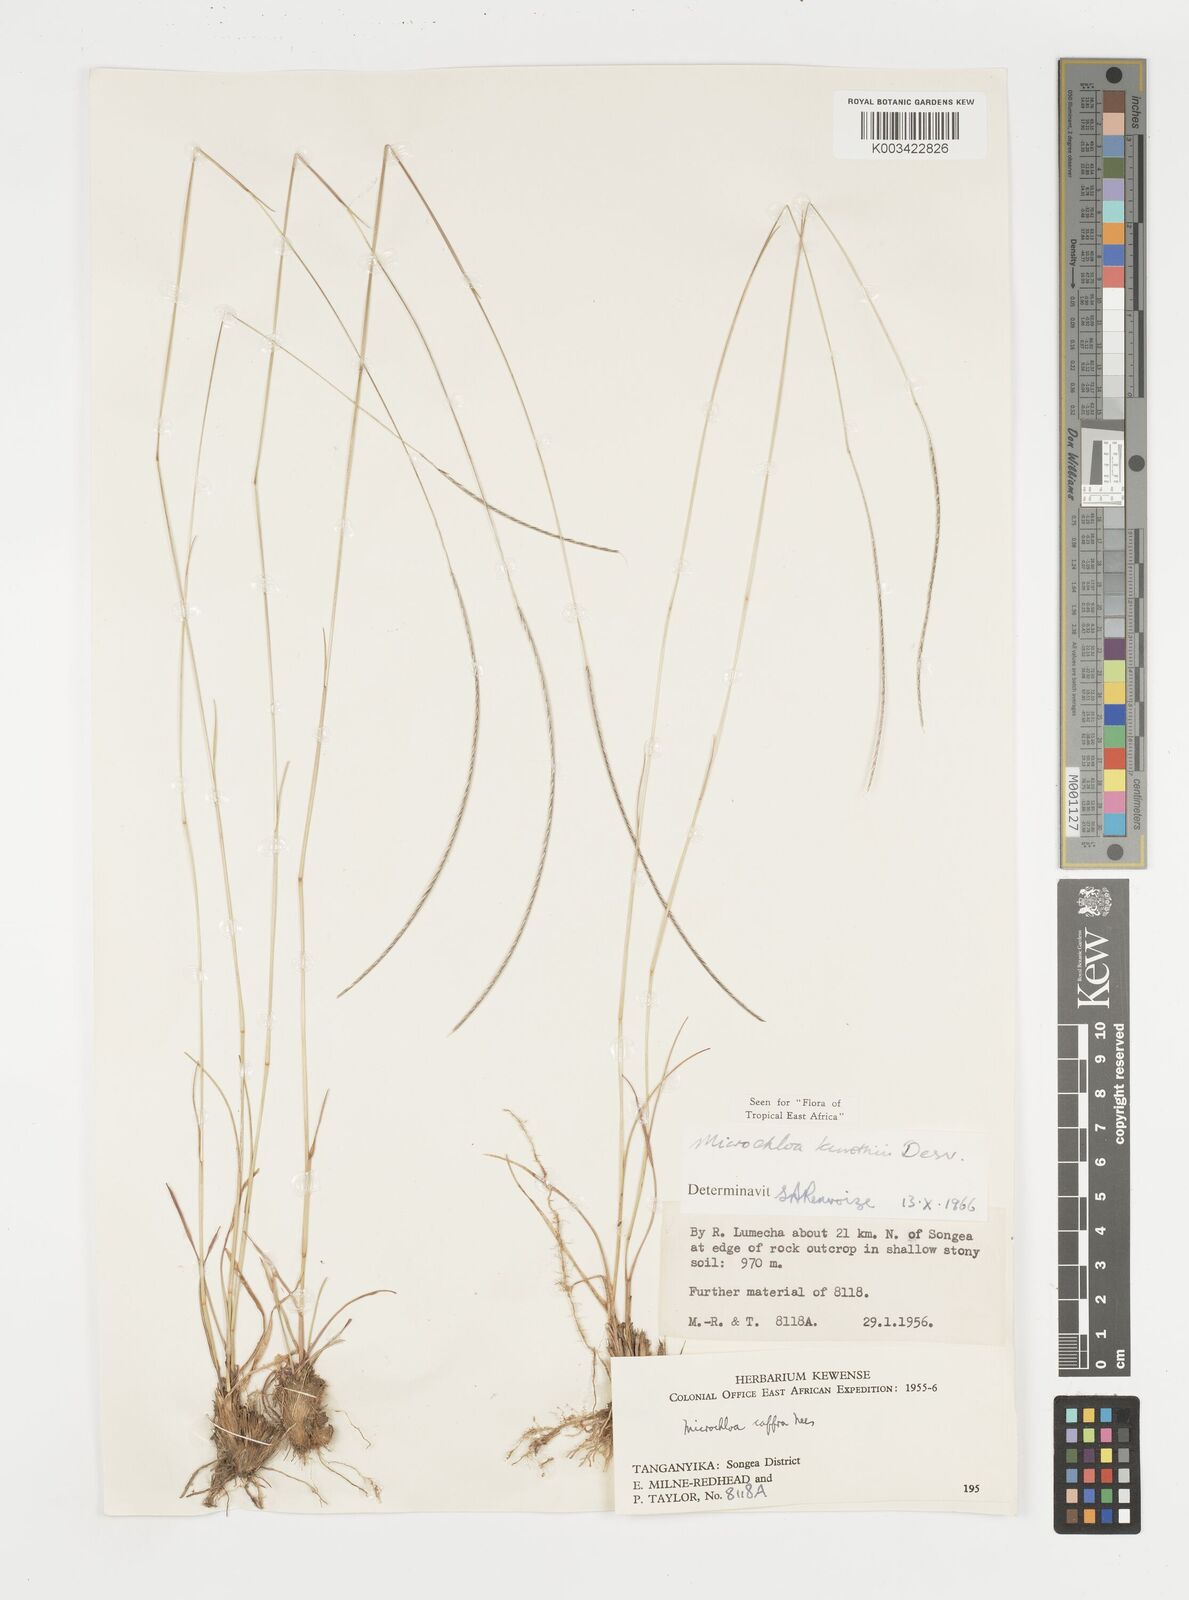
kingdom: Plantae
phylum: Tracheophyta
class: Liliopsida
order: Poales
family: Poaceae
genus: Microchloa
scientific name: Microchloa kunthii
